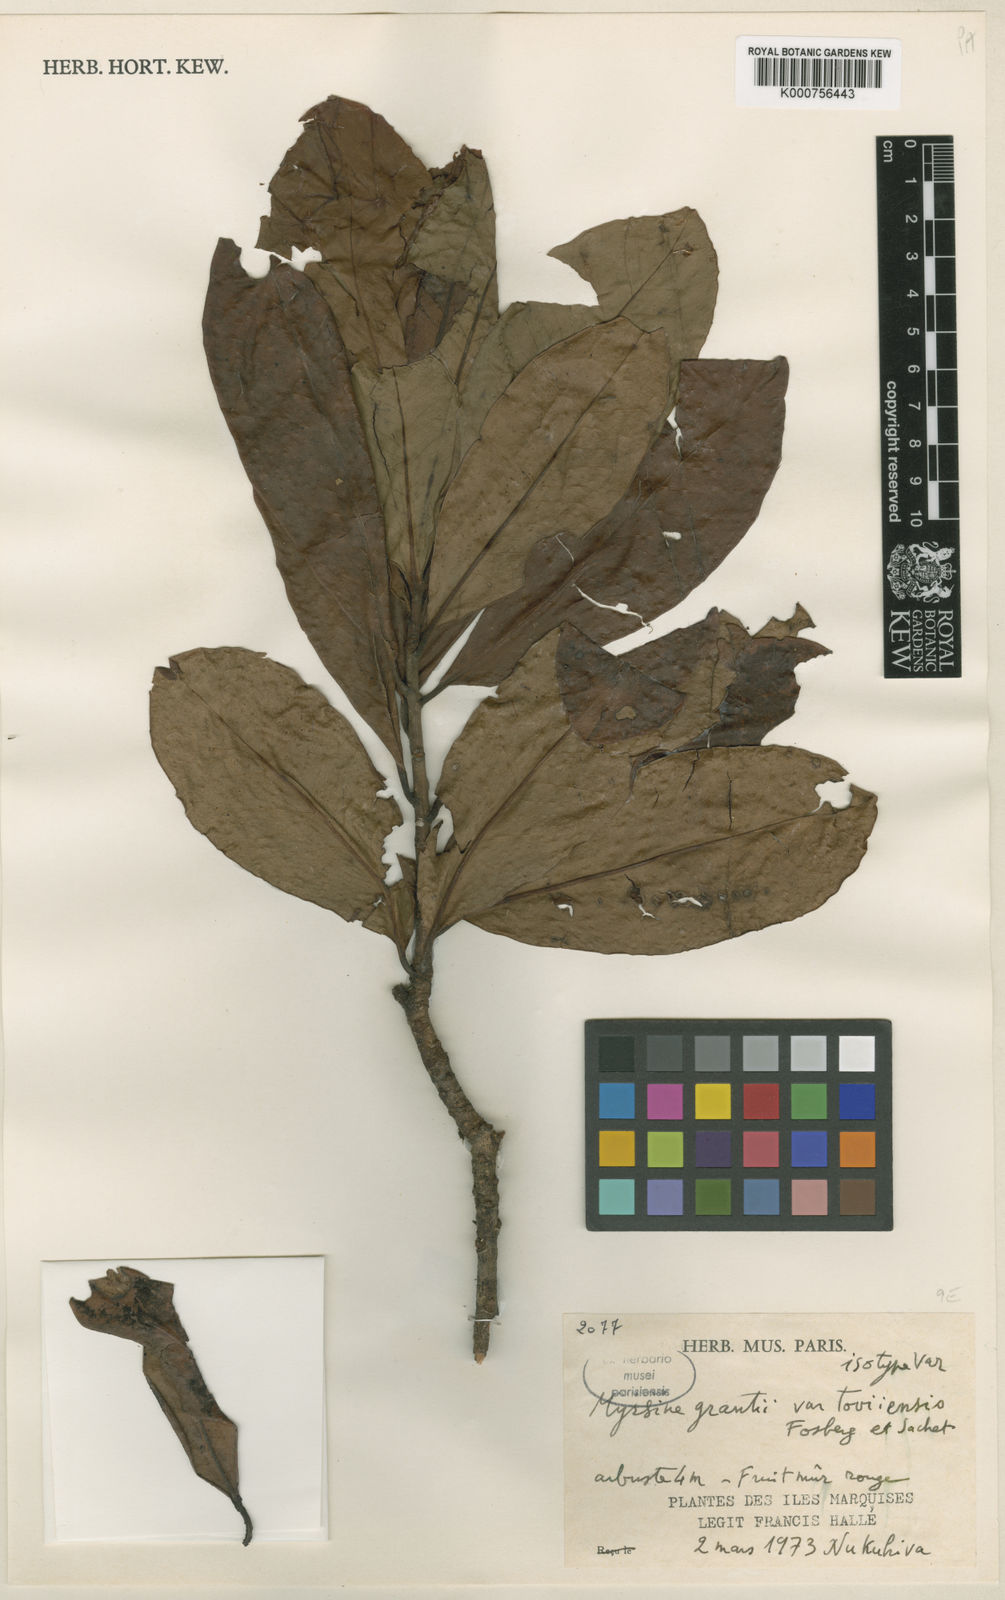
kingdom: Plantae
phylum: Tracheophyta
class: Magnoliopsida
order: Ericales
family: Primulaceae
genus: Myrsine
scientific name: Myrsine adamsonii
